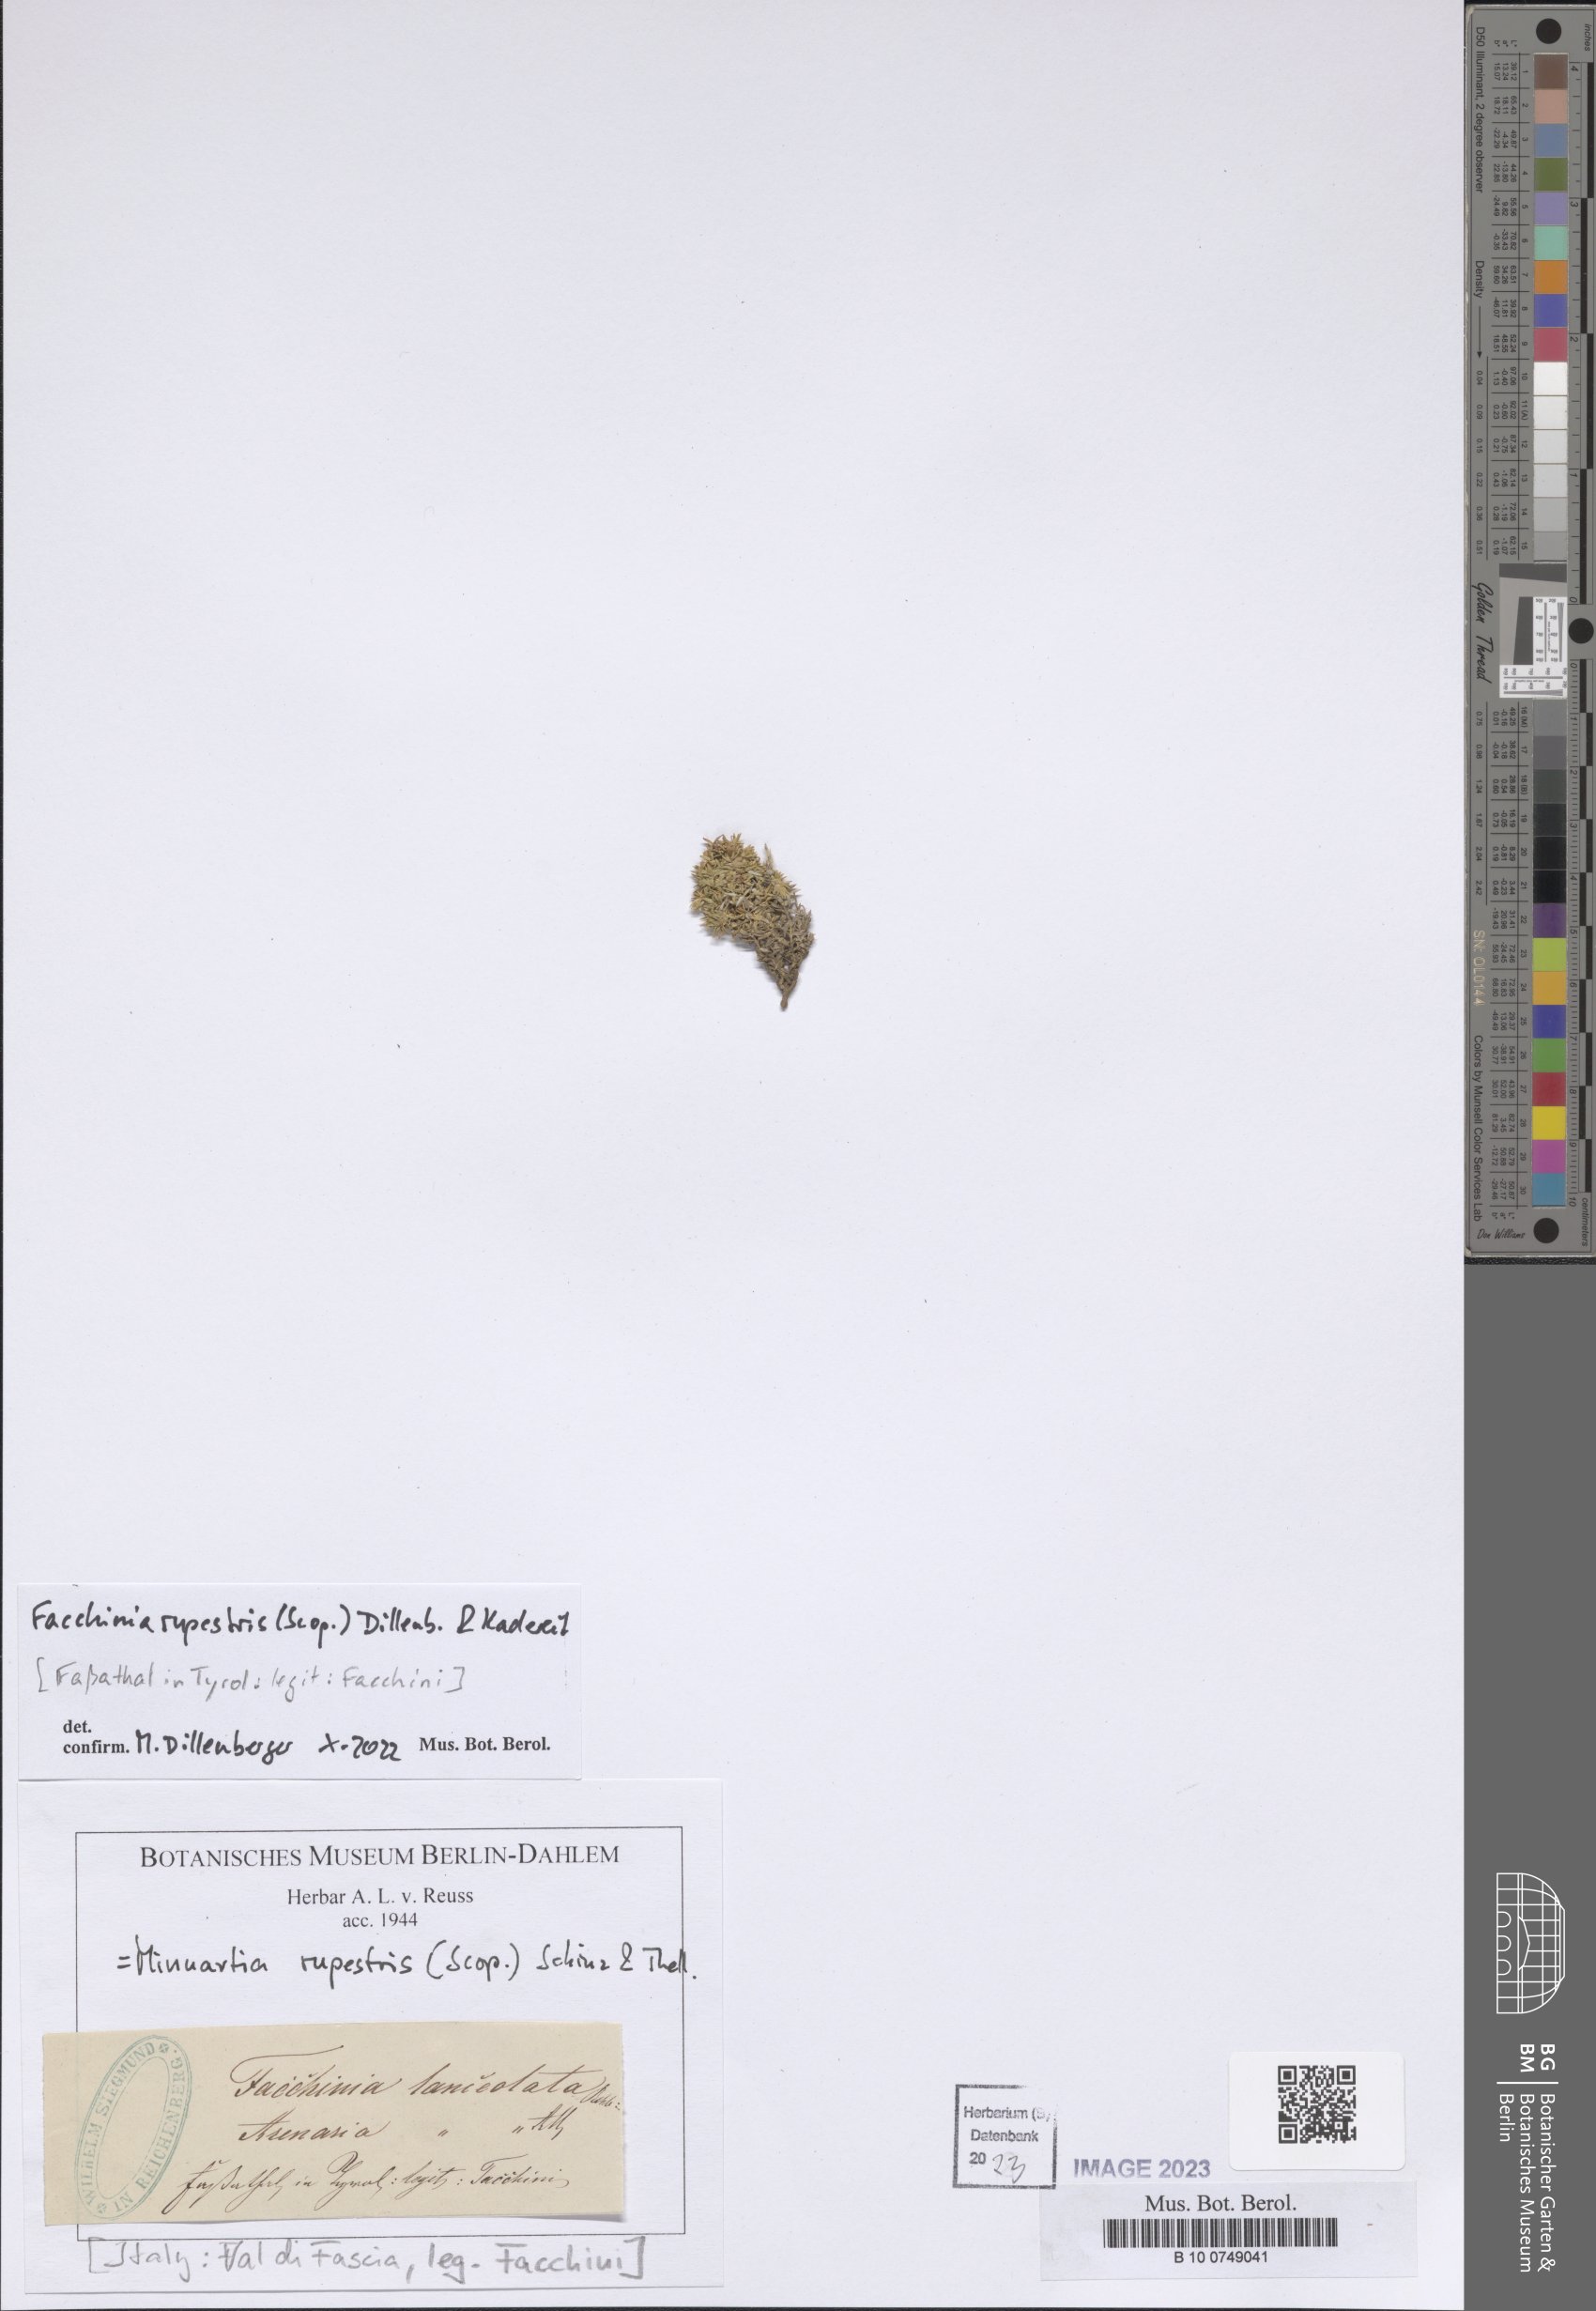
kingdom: Plantae
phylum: Tracheophyta
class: Magnoliopsida
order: Caryophyllales
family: Caryophyllaceae
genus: Facchinia
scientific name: Facchinia rupestris
